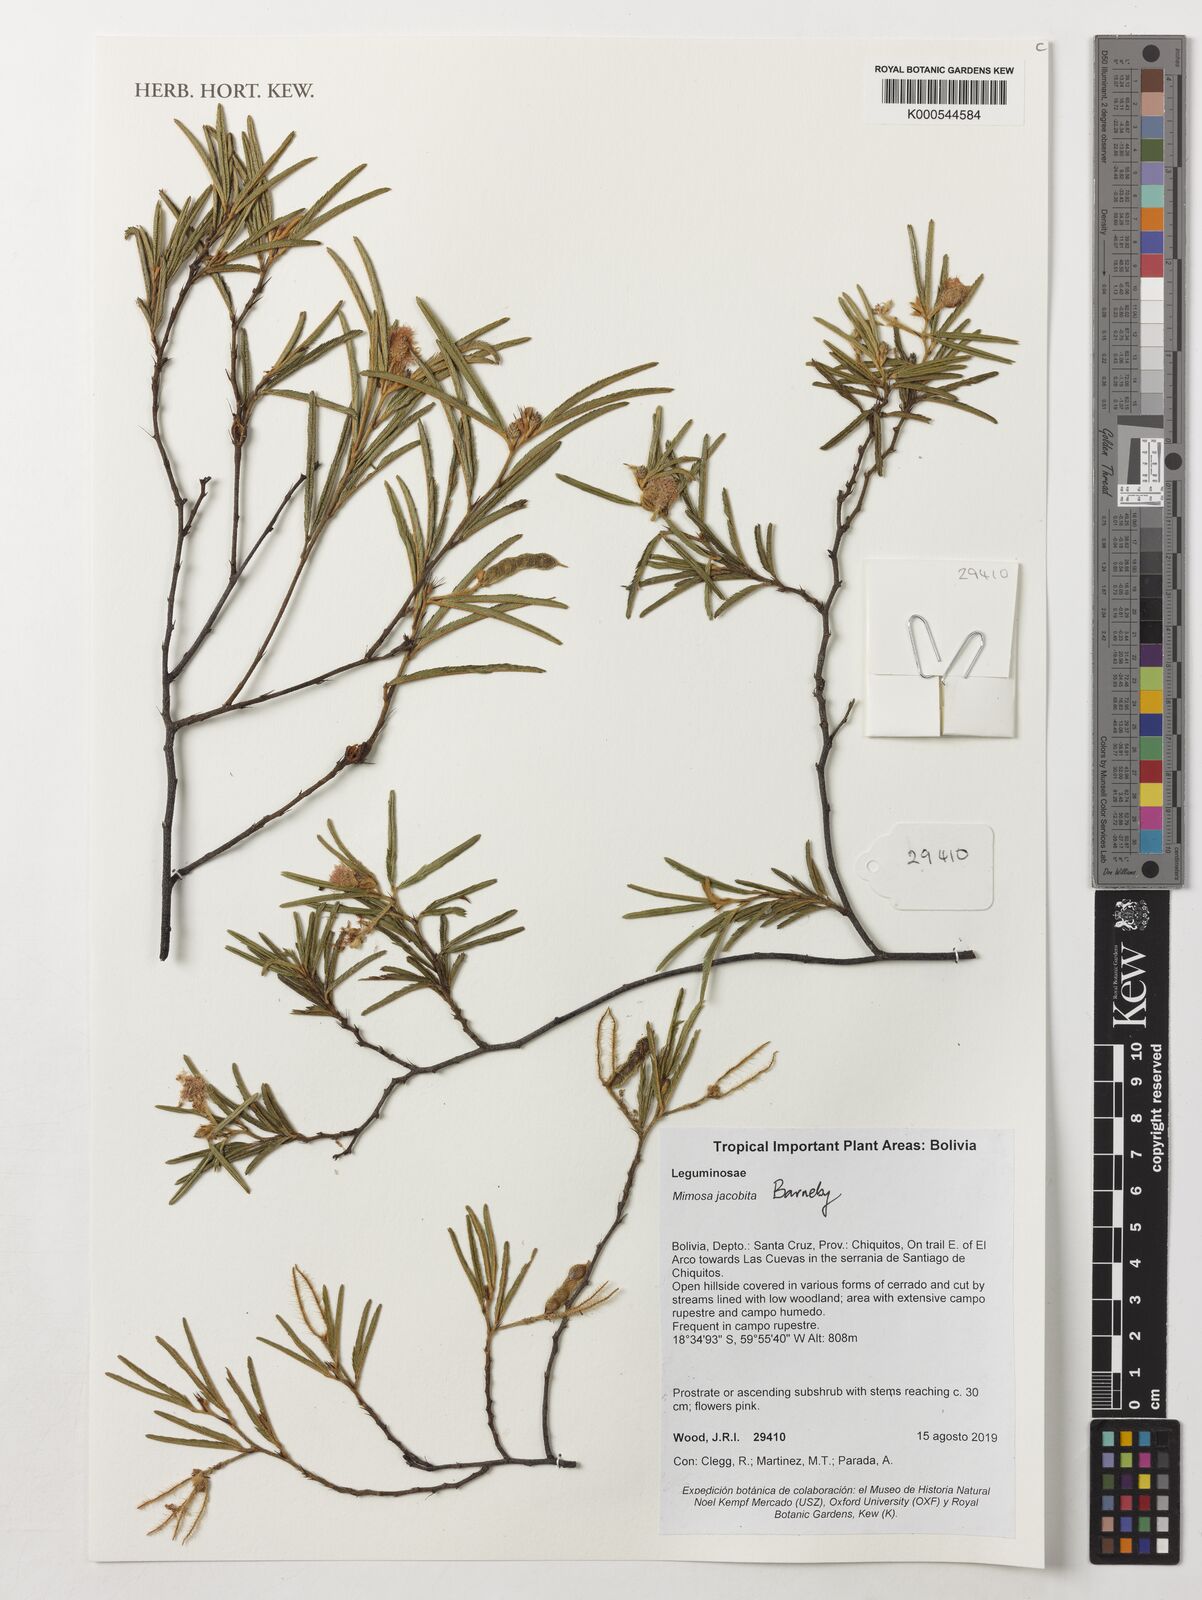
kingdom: Plantae
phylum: Tracheophyta
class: Magnoliopsida
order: Fabales
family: Fabaceae
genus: Mimosa
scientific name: Mimosa jacobita
